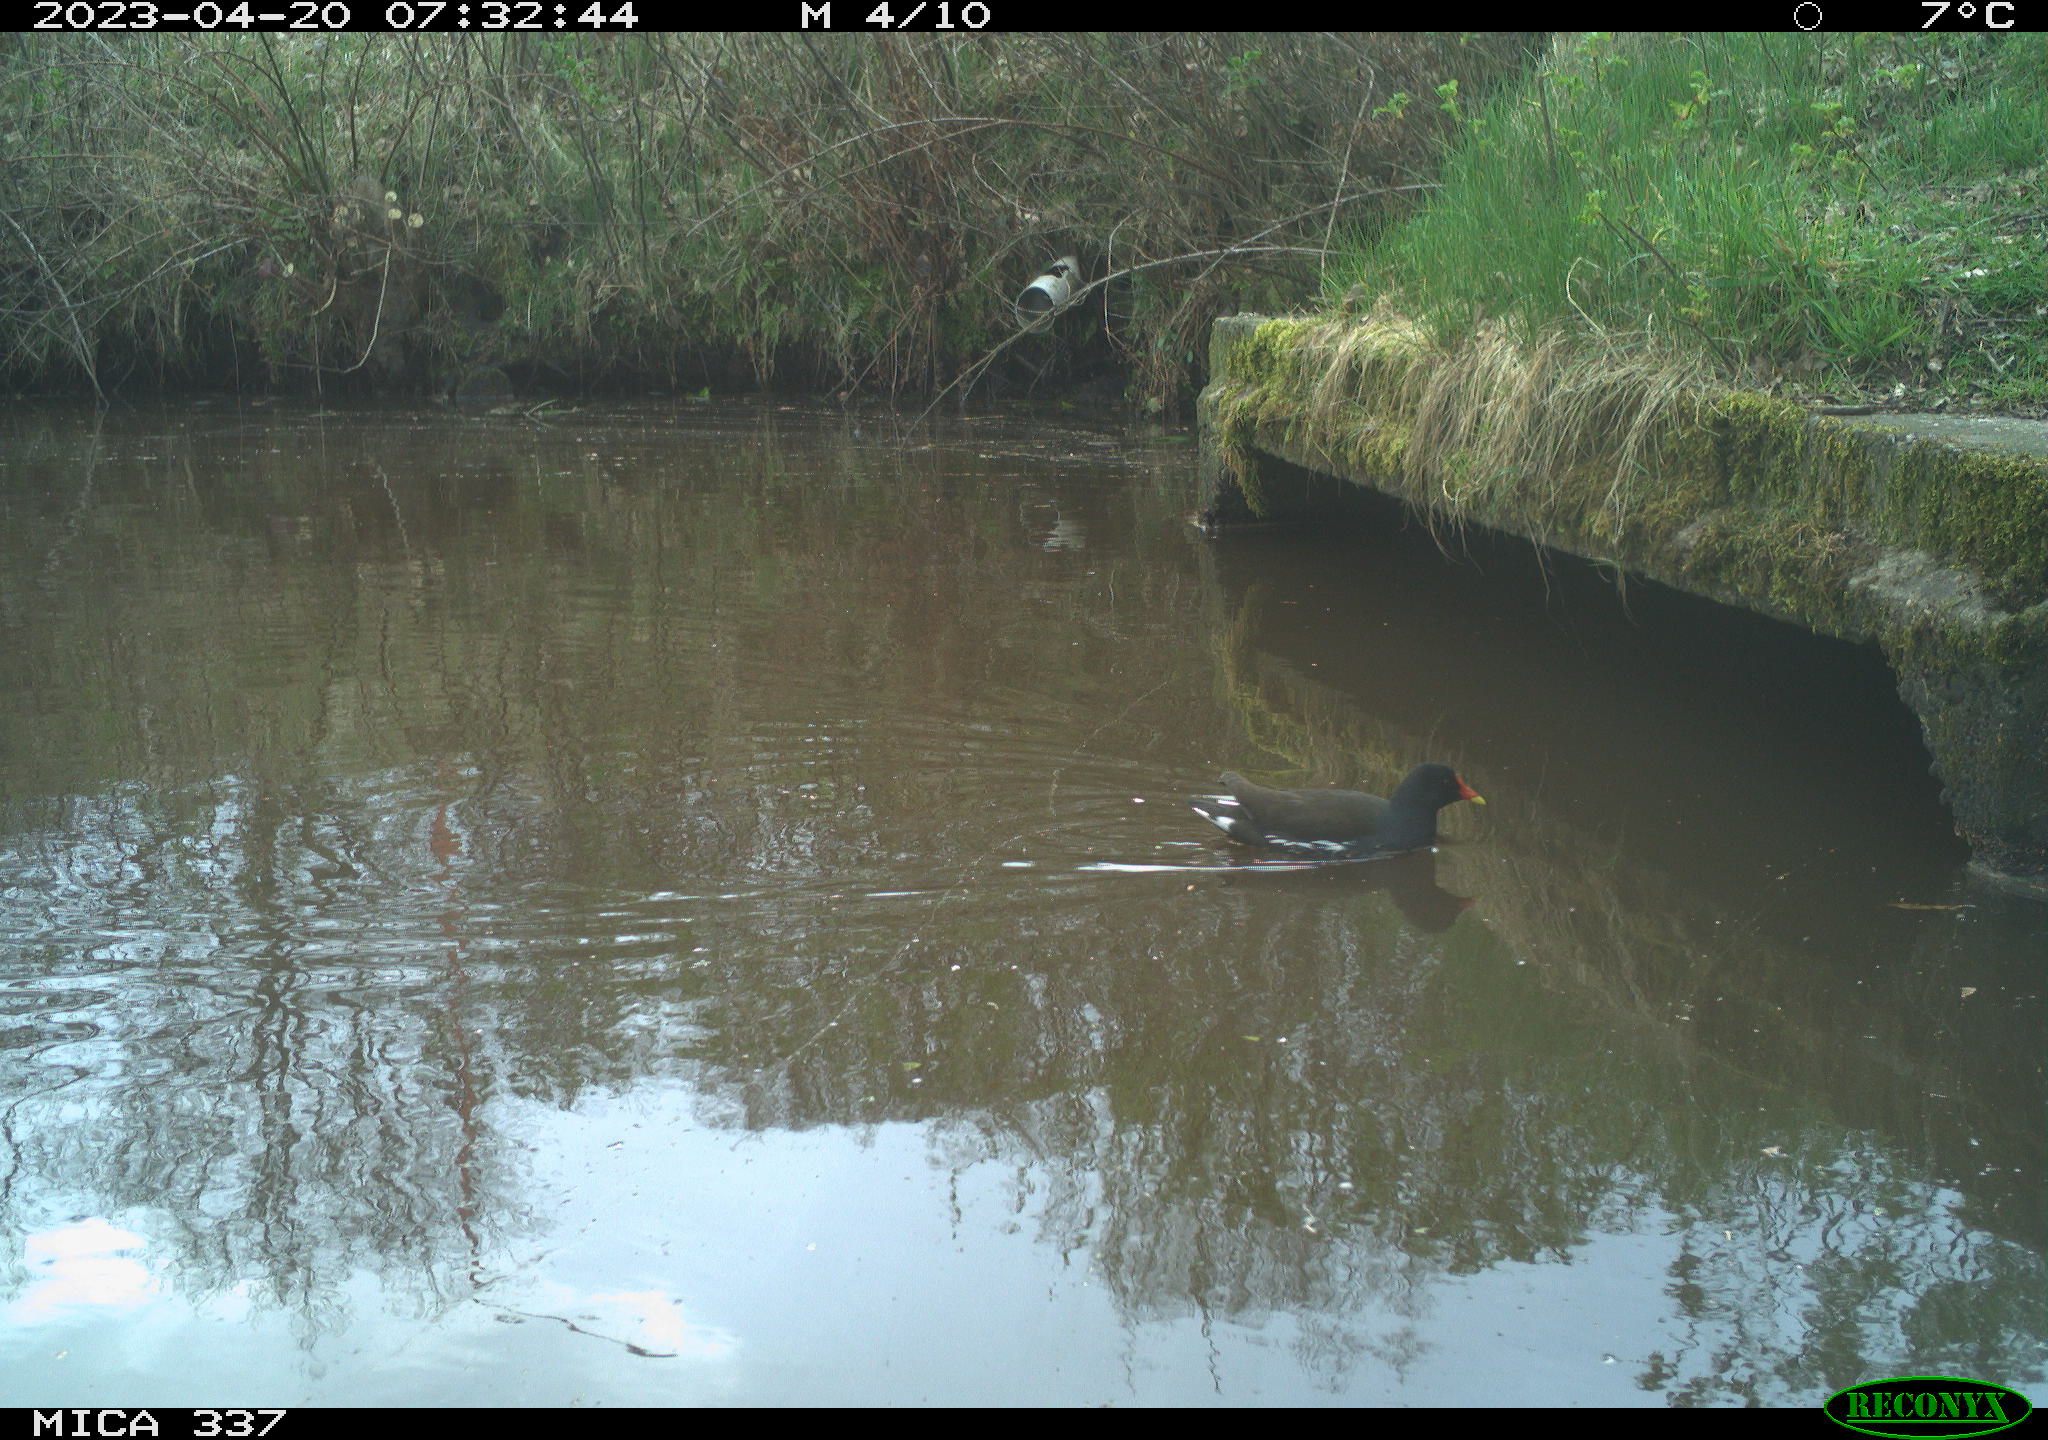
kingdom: Animalia
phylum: Chordata
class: Aves
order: Gruiformes
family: Rallidae
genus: Gallinula
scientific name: Gallinula chloropus
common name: Common moorhen
